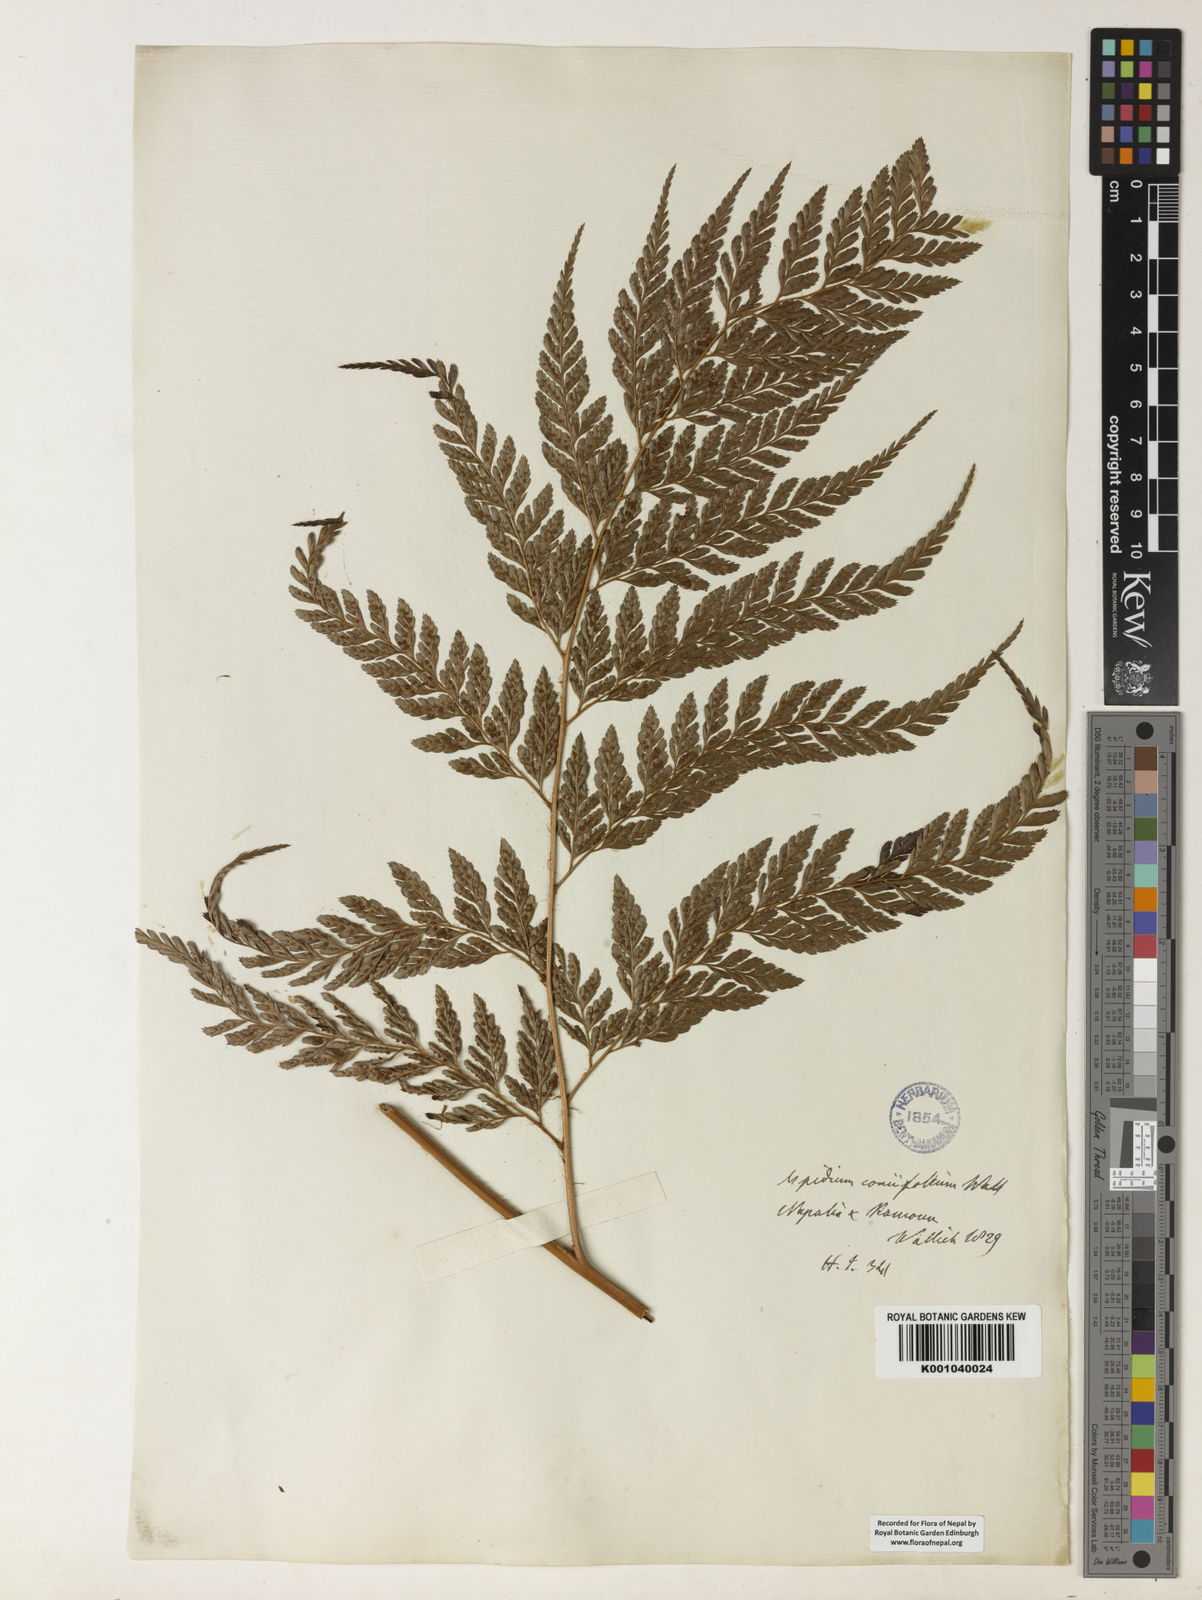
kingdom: Plantae
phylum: Tracheophyta
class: Polypodiopsida
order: Polypodiales
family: Dryopteridaceae
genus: Arachniodes
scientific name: Arachniodes coniifolia
